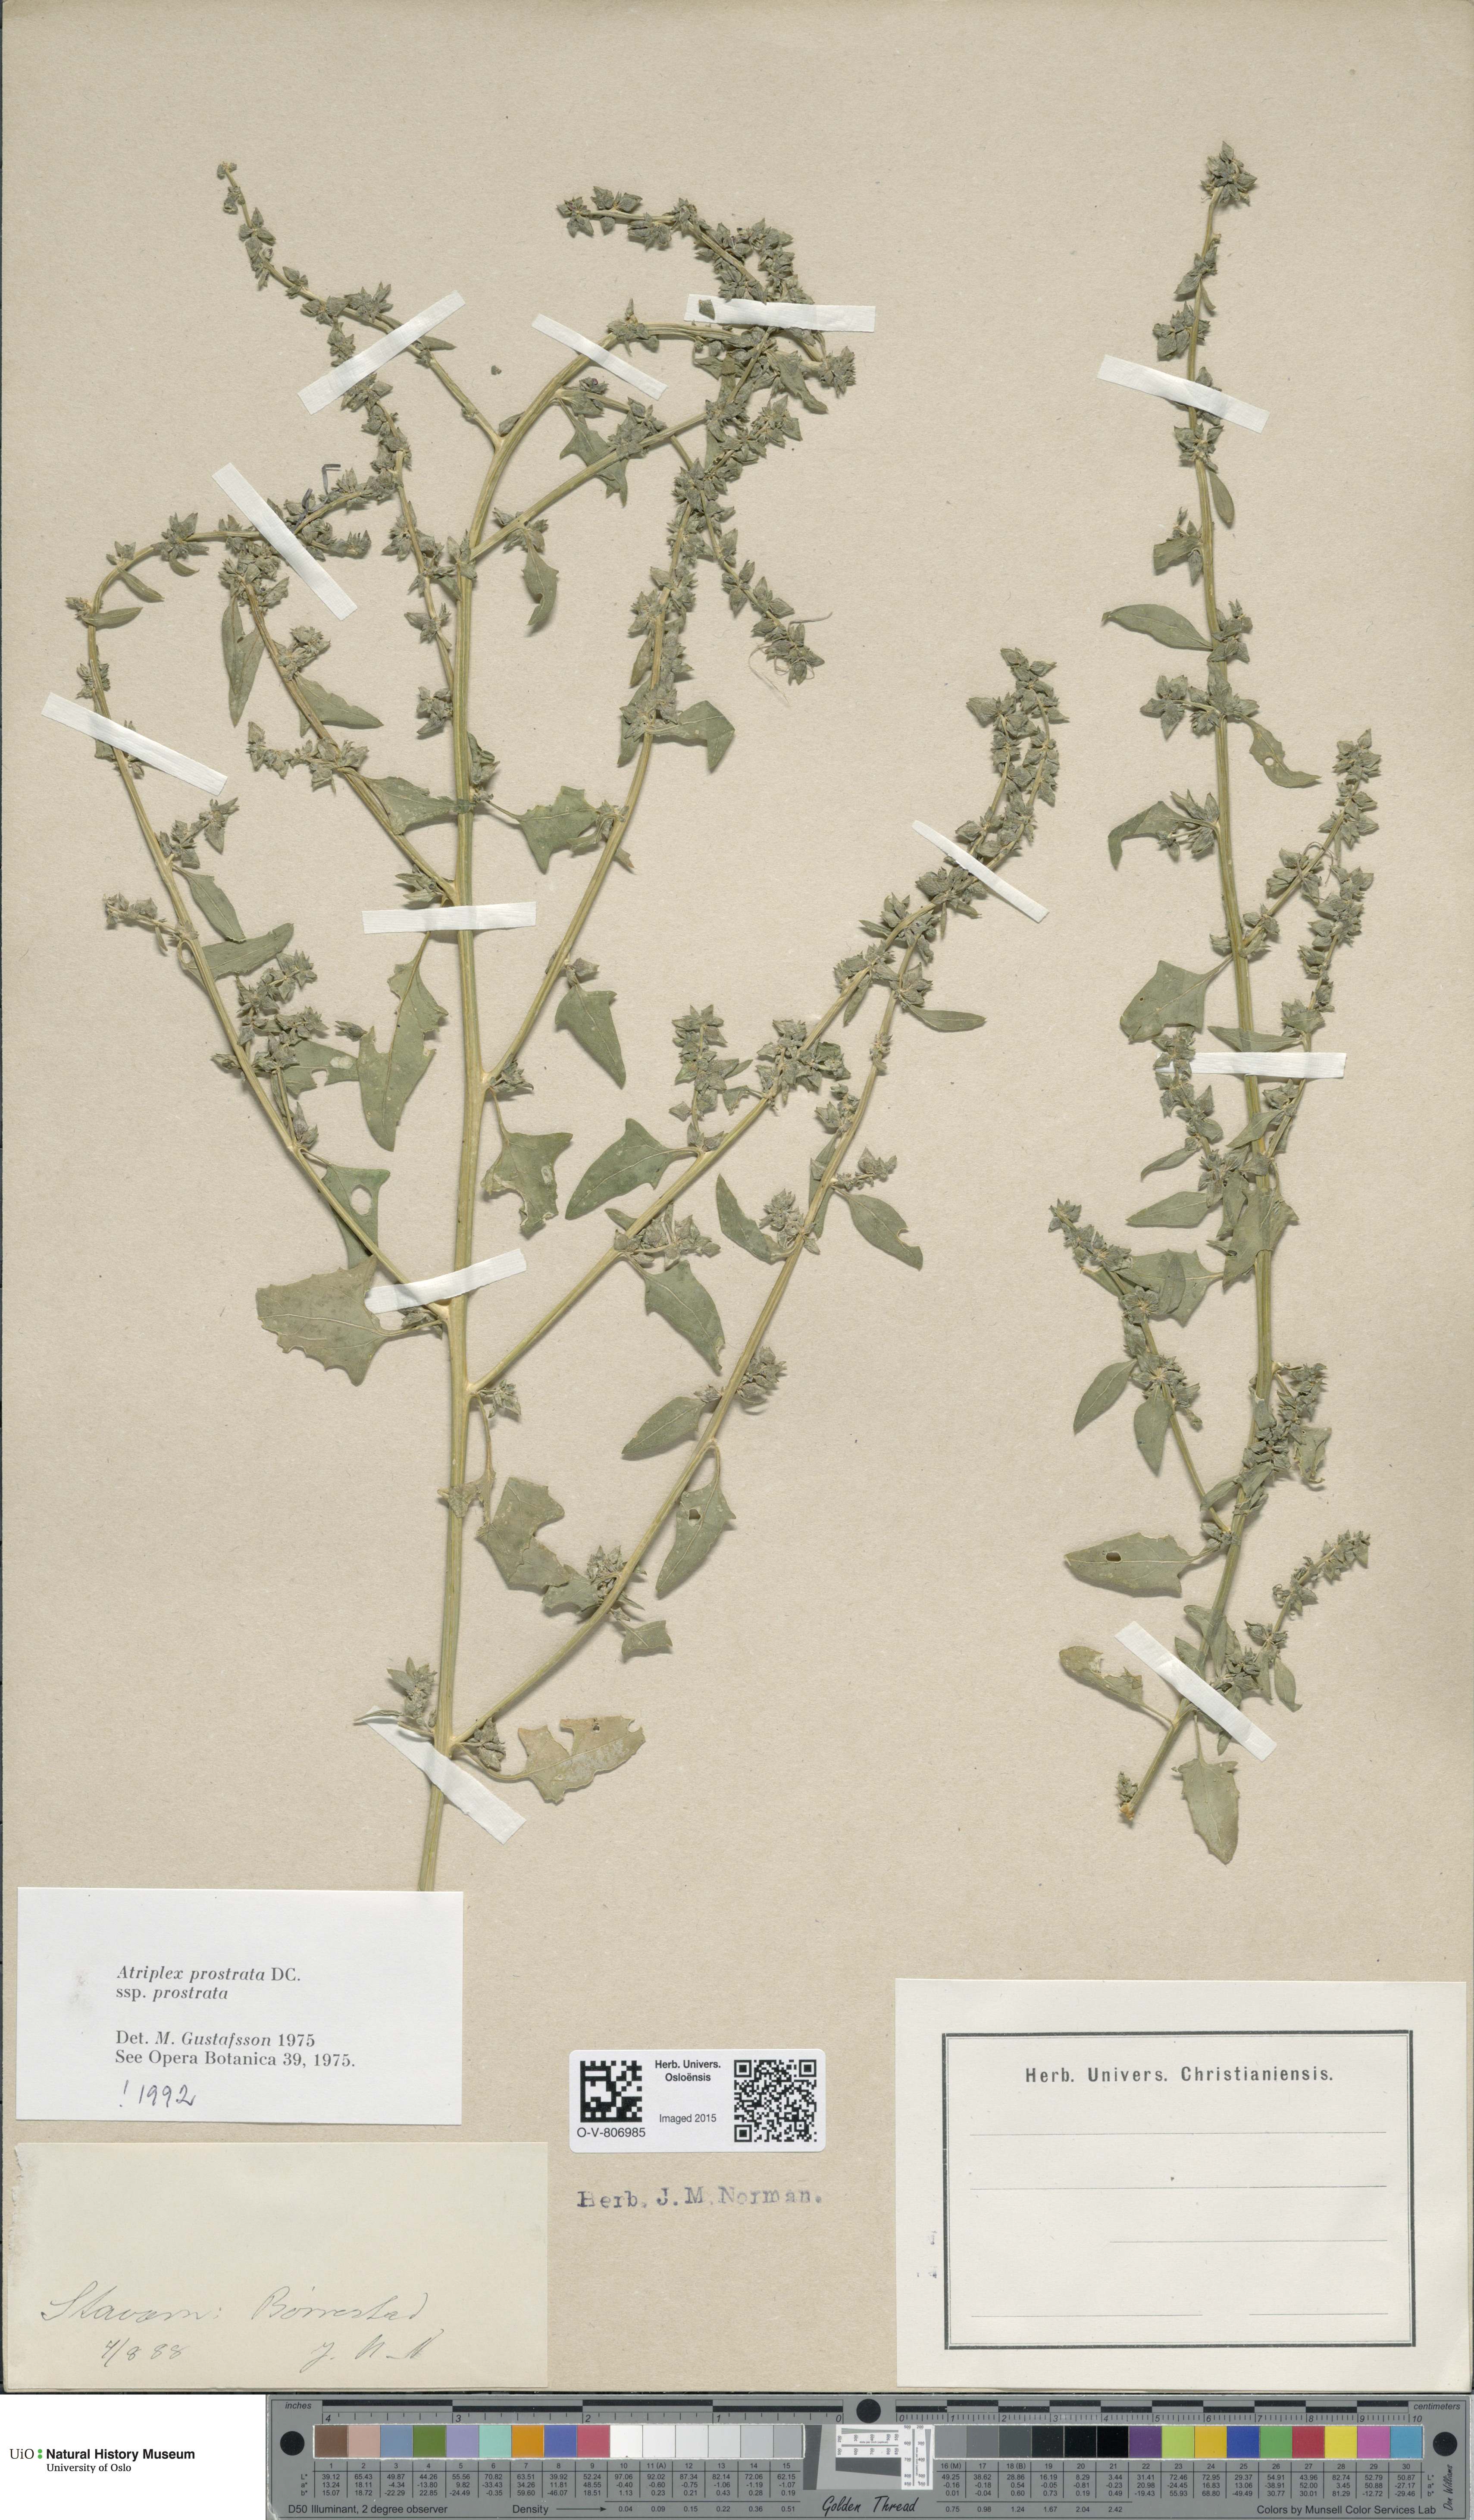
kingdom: Plantae
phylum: Tracheophyta
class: Magnoliopsida
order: Caryophyllales
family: Amaranthaceae
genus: Atriplex
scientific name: Atriplex prostrata
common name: Spear-leaved orache
